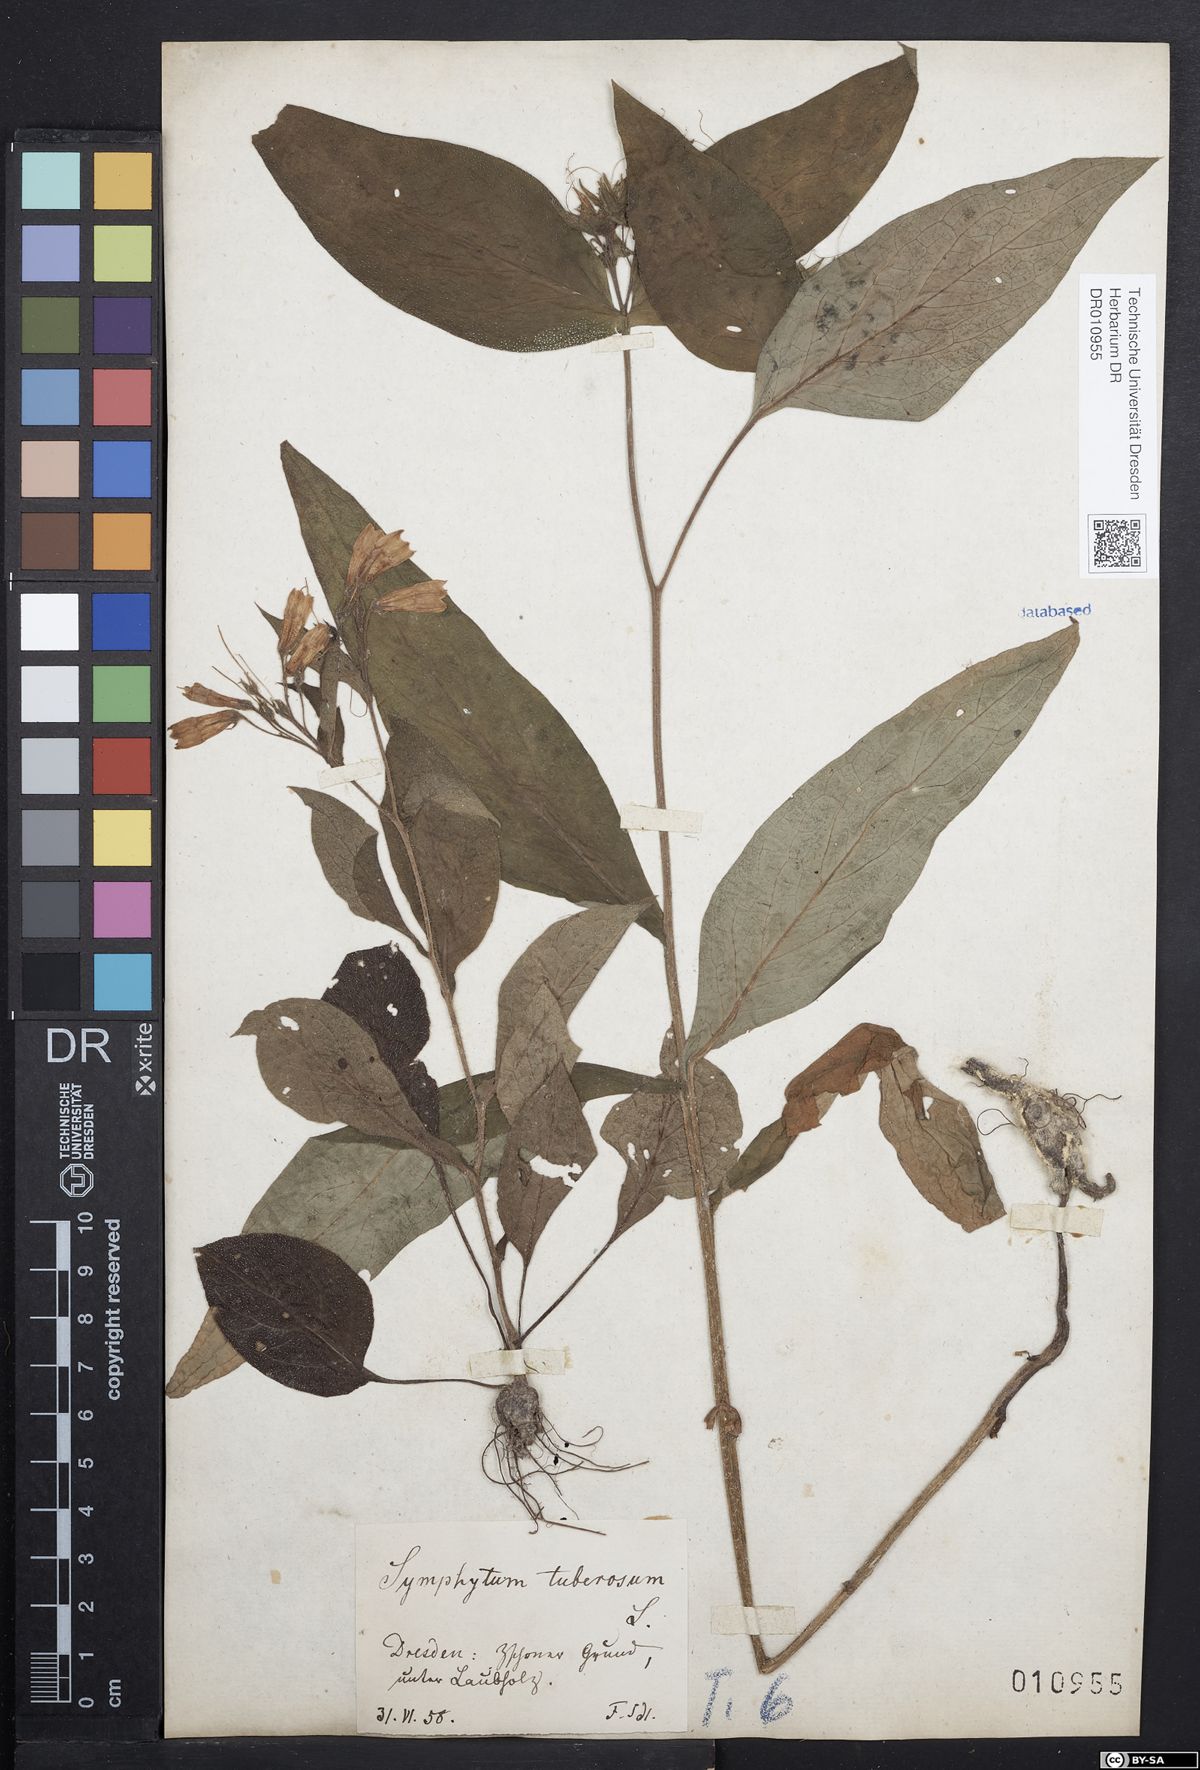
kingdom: Plantae
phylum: Tracheophyta
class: Magnoliopsida
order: Boraginales
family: Boraginaceae
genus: Symphytum
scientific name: Symphytum tuberosum
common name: Tuberous comfrey
